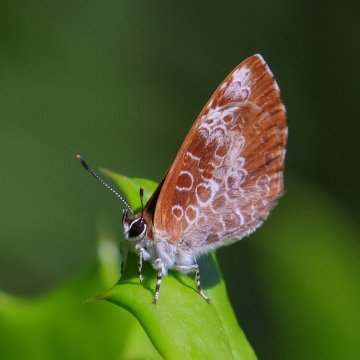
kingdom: Animalia
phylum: Arthropoda
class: Insecta
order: Lepidoptera
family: Lycaenidae
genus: Feniseca
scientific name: Feniseca tarquinius
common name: Harvester
